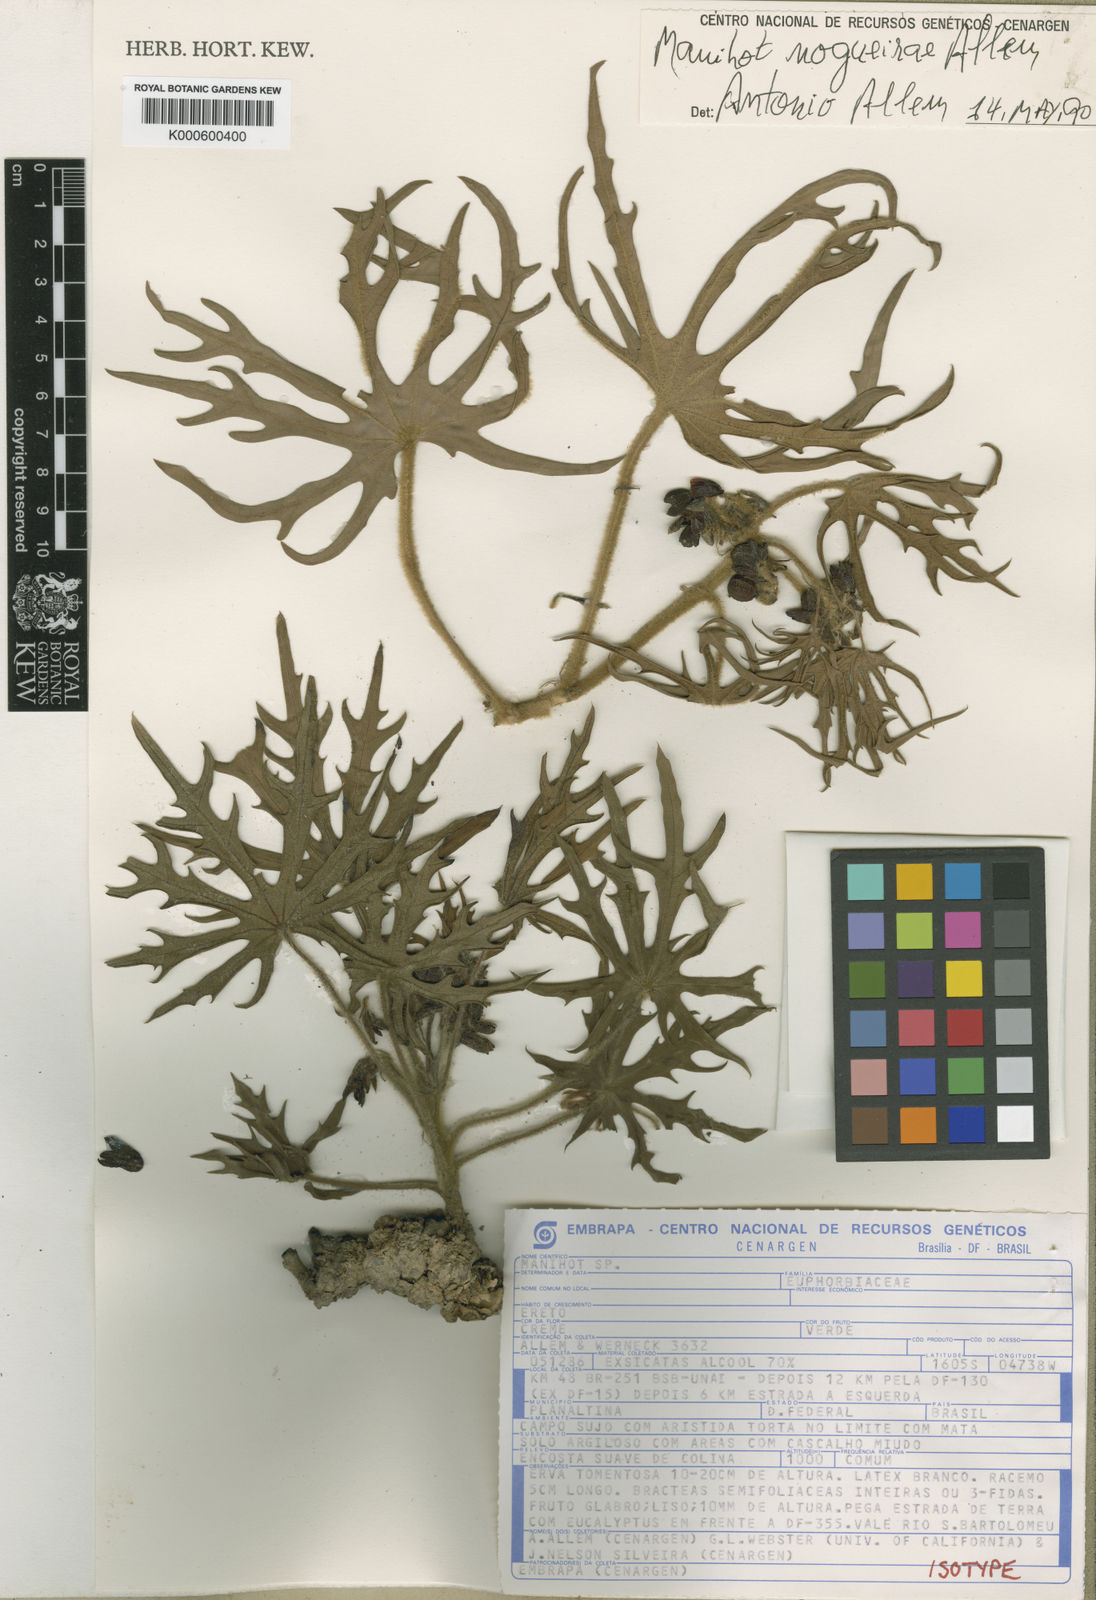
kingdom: Plantae
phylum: Tracheophyta
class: Magnoliopsida
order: Malpighiales
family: Euphorbiaceae
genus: Manihot
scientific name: Manihot nogueirae
